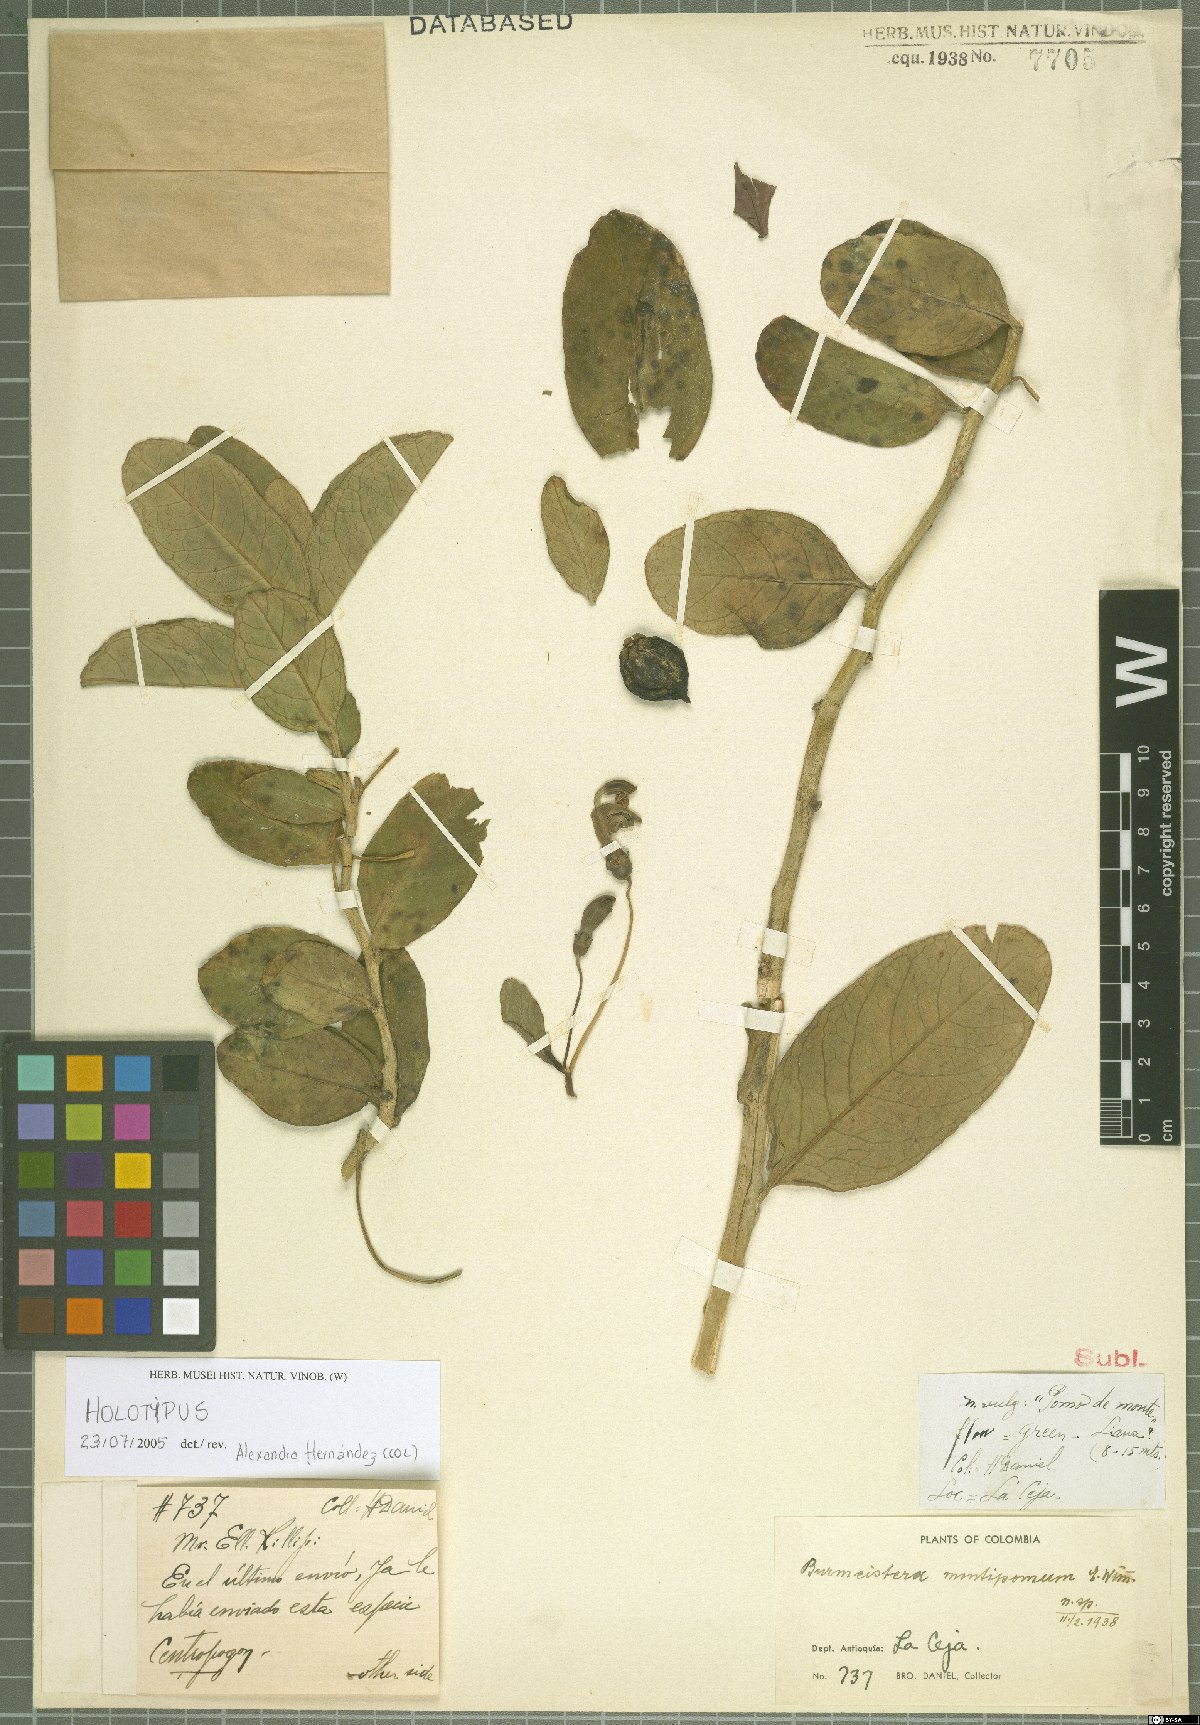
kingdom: Plantae
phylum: Tracheophyta
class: Magnoliopsida
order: Asterales
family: Campanulaceae
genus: Burmeistera
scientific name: Burmeistera montipomum
